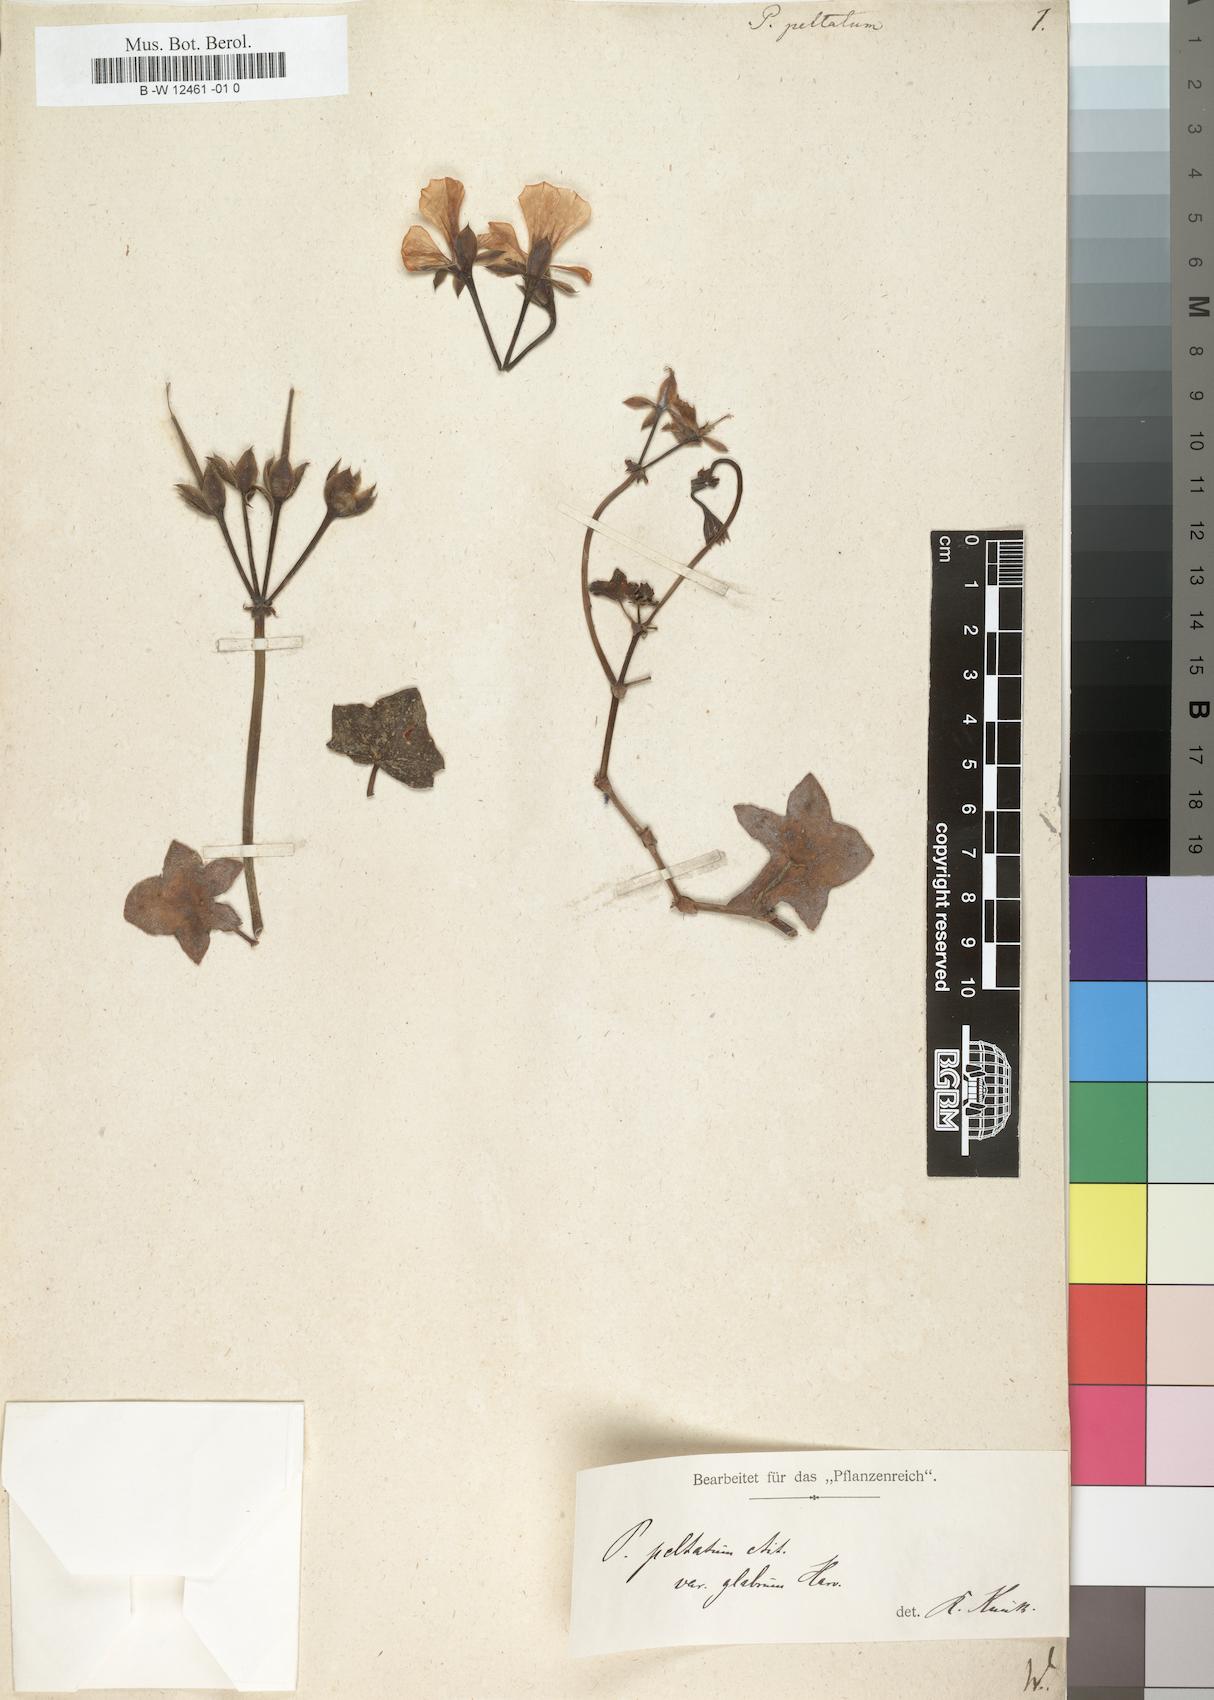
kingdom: Plantae
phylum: Tracheophyta
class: Magnoliopsida
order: Geraniales
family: Geraniaceae
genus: Pelargonium
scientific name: Pelargonium peltatum
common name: Ivyleaf geranium
